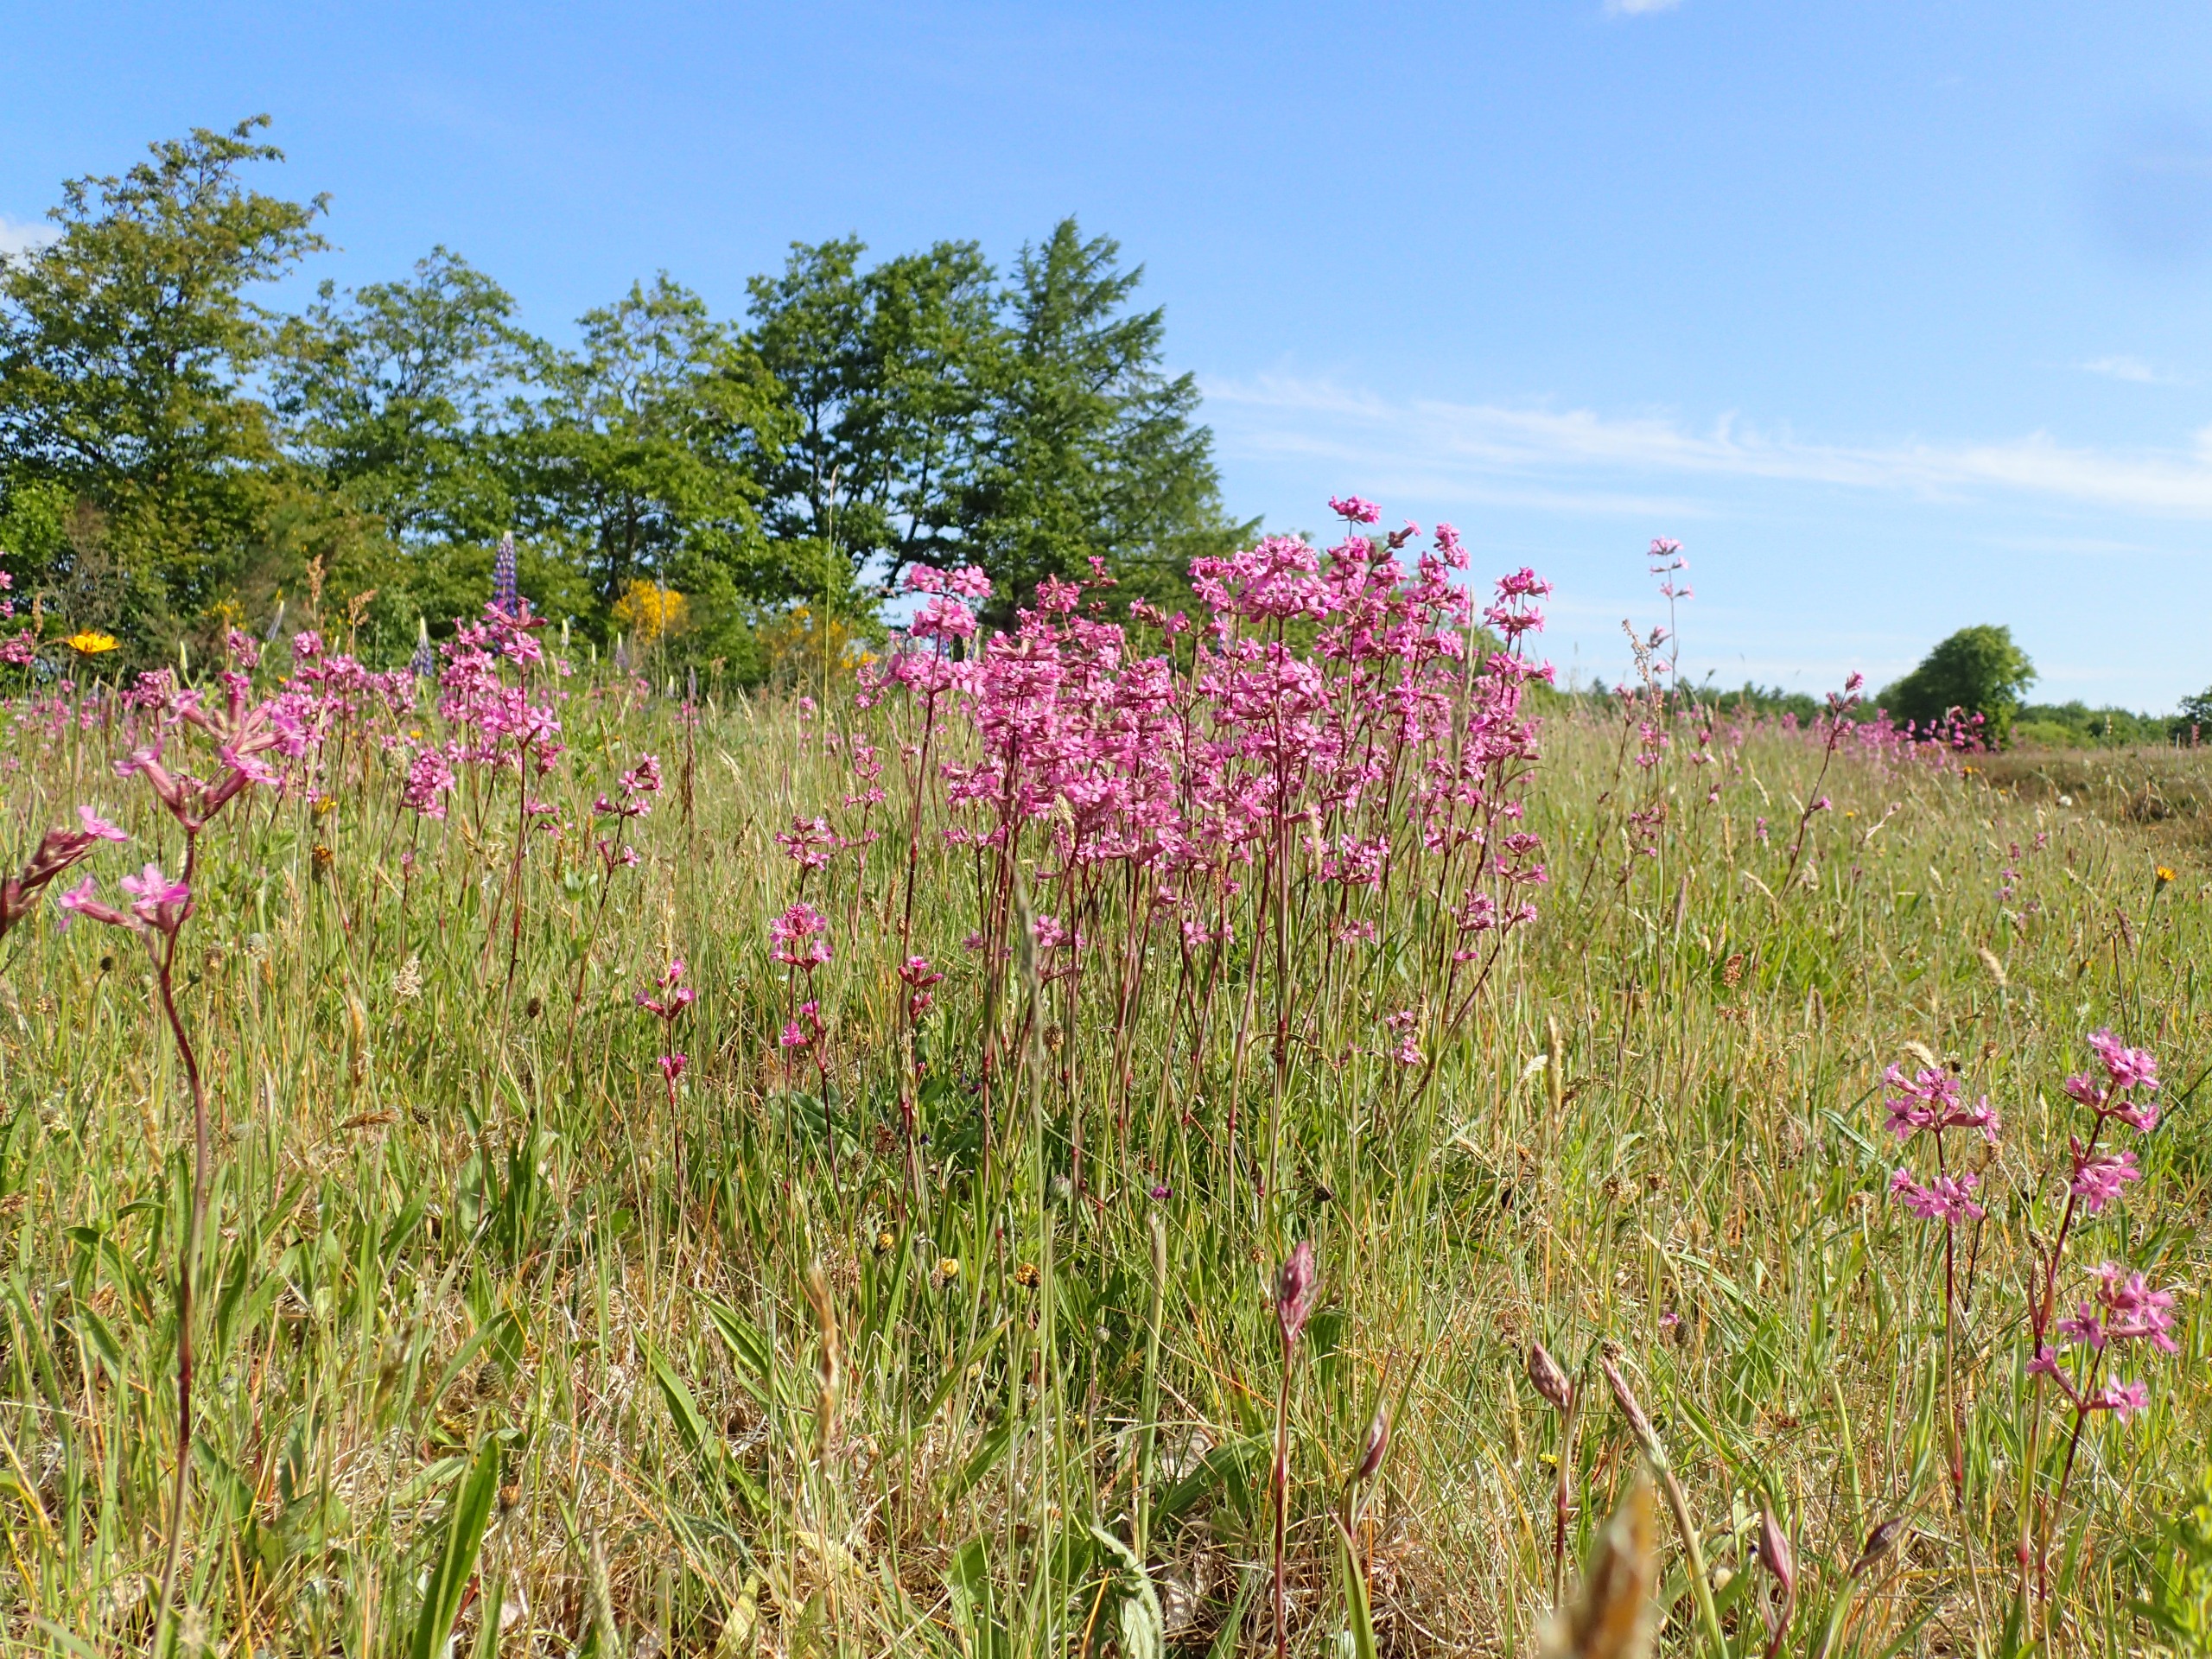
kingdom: Plantae
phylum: Tracheophyta
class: Magnoliopsida
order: Caryophyllales
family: Caryophyllaceae
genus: Viscaria
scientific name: Viscaria vulgaris
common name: Tjærenellike
